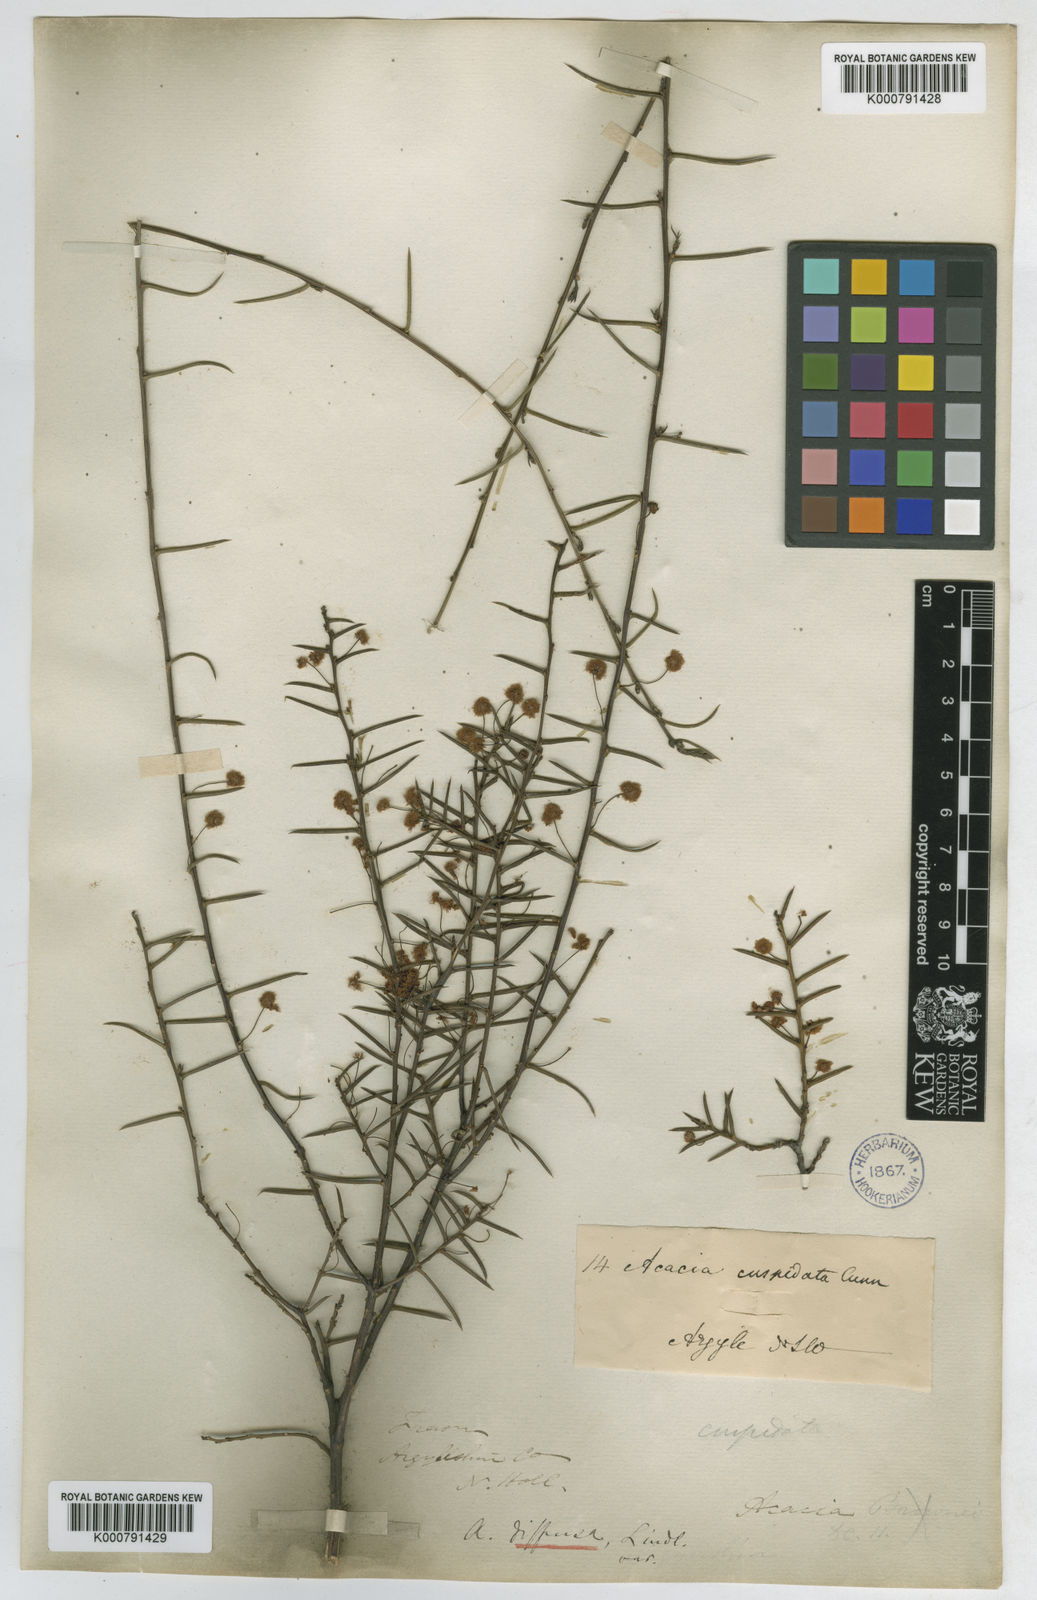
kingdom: Plantae
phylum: Tracheophyta
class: Magnoliopsida
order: Fabales
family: Fabaceae
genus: Acacia
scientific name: Acacia
